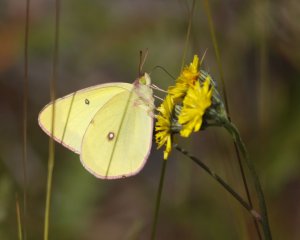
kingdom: Animalia
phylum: Arthropoda
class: Insecta
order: Lepidoptera
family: Pieridae
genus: Colias
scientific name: Colias interior
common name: Pink-edged Sulphur
